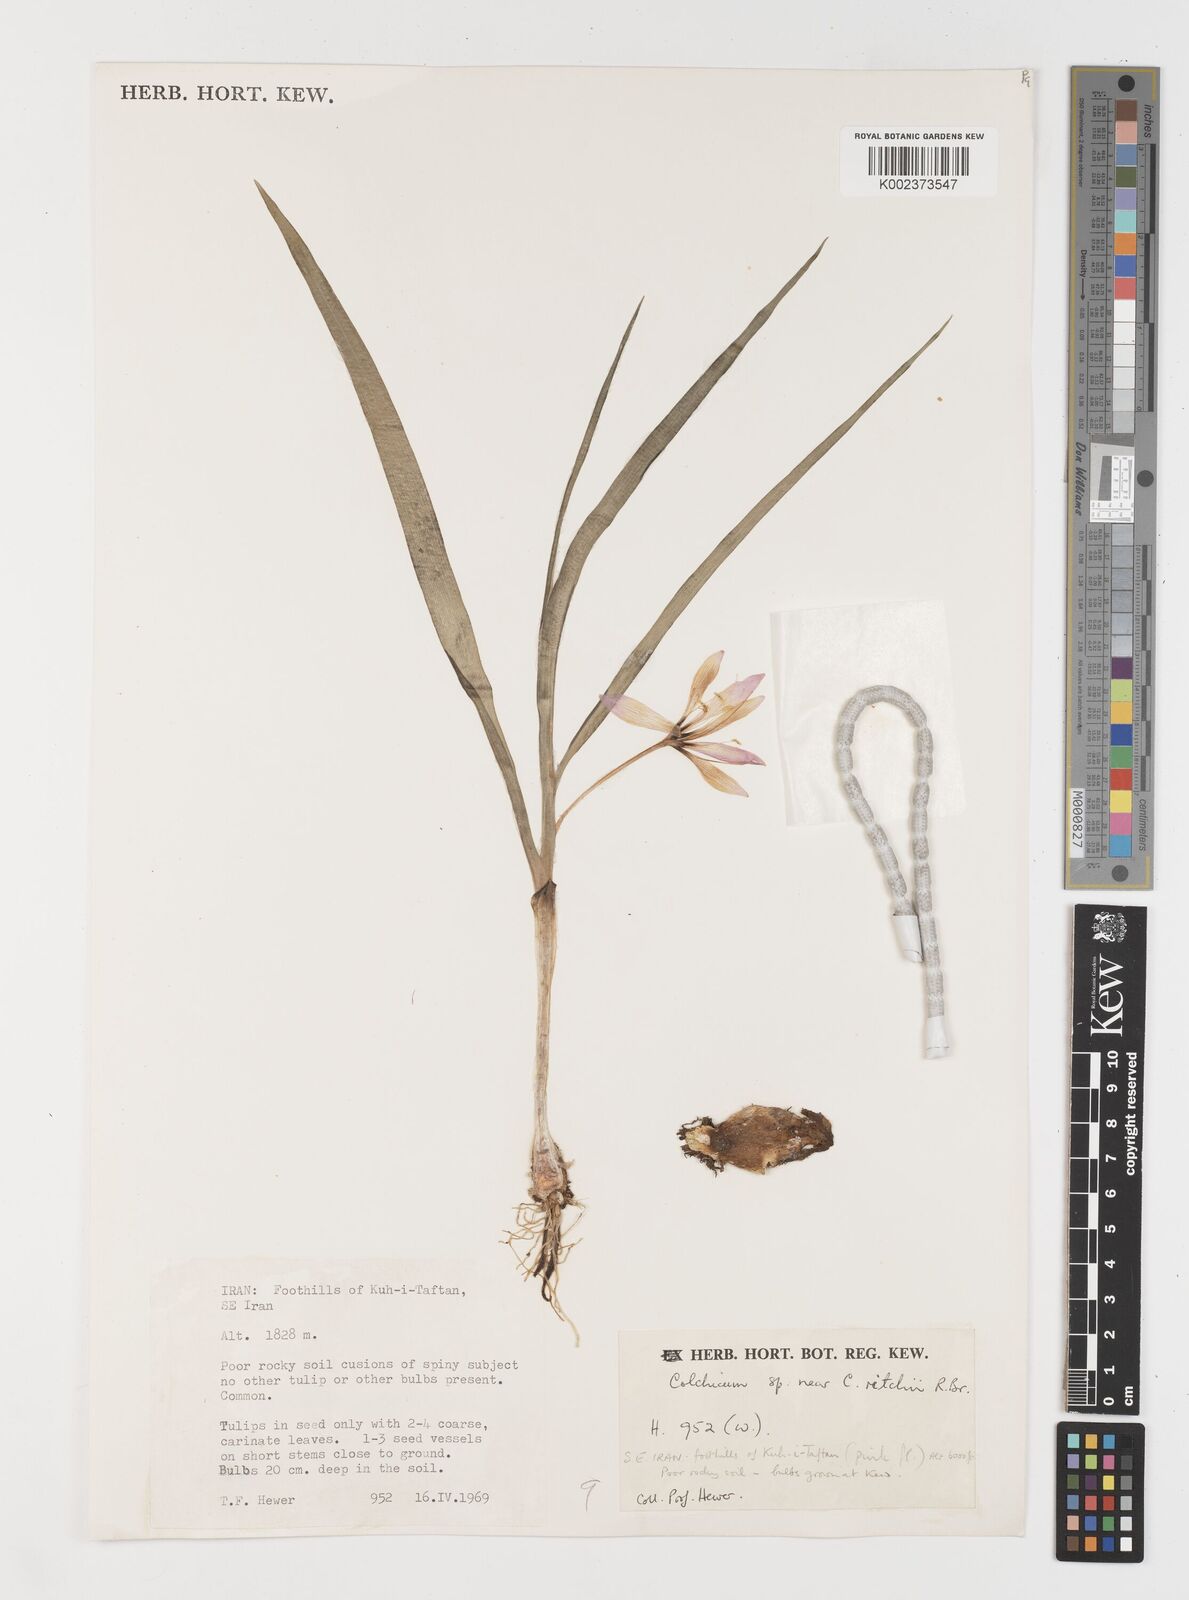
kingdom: Plantae
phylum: Tracheophyta
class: Liliopsida
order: Liliales
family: Colchicaceae
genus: Colchicum
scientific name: Colchicum ritchii
